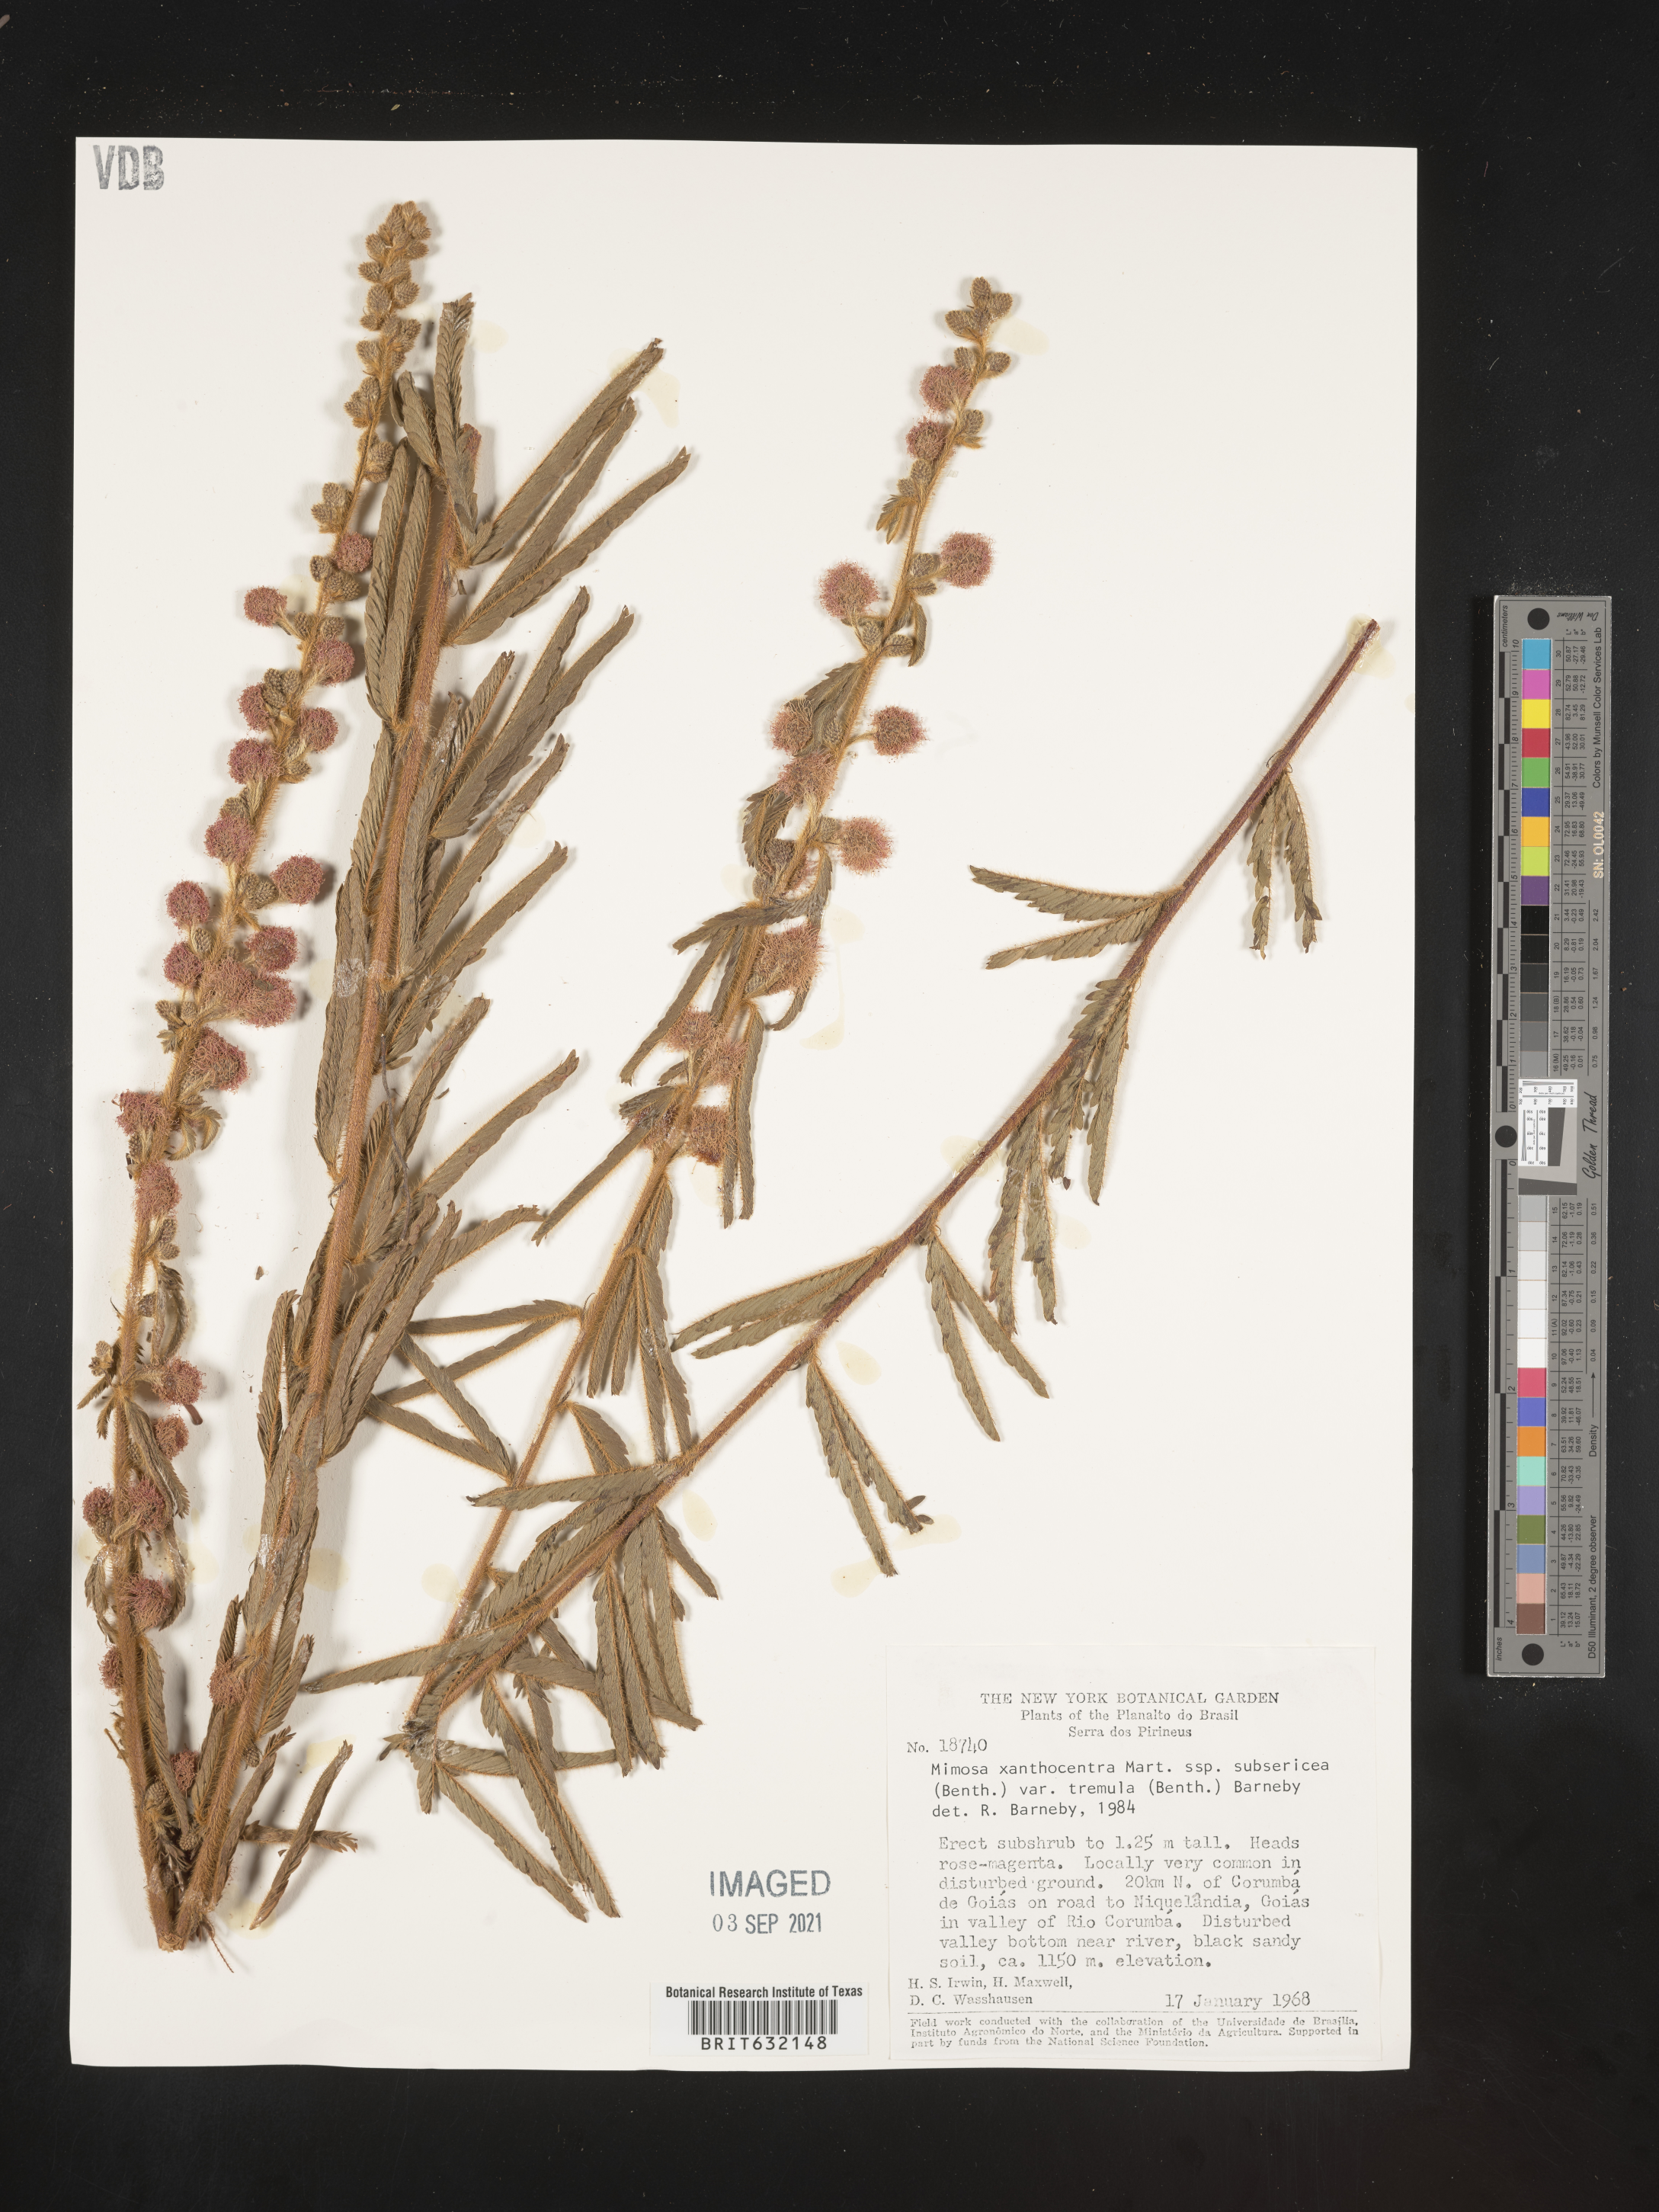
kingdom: Plantae
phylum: Tracheophyta
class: Magnoliopsida
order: Fabales
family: Fabaceae
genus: Mimosa
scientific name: Mimosa
